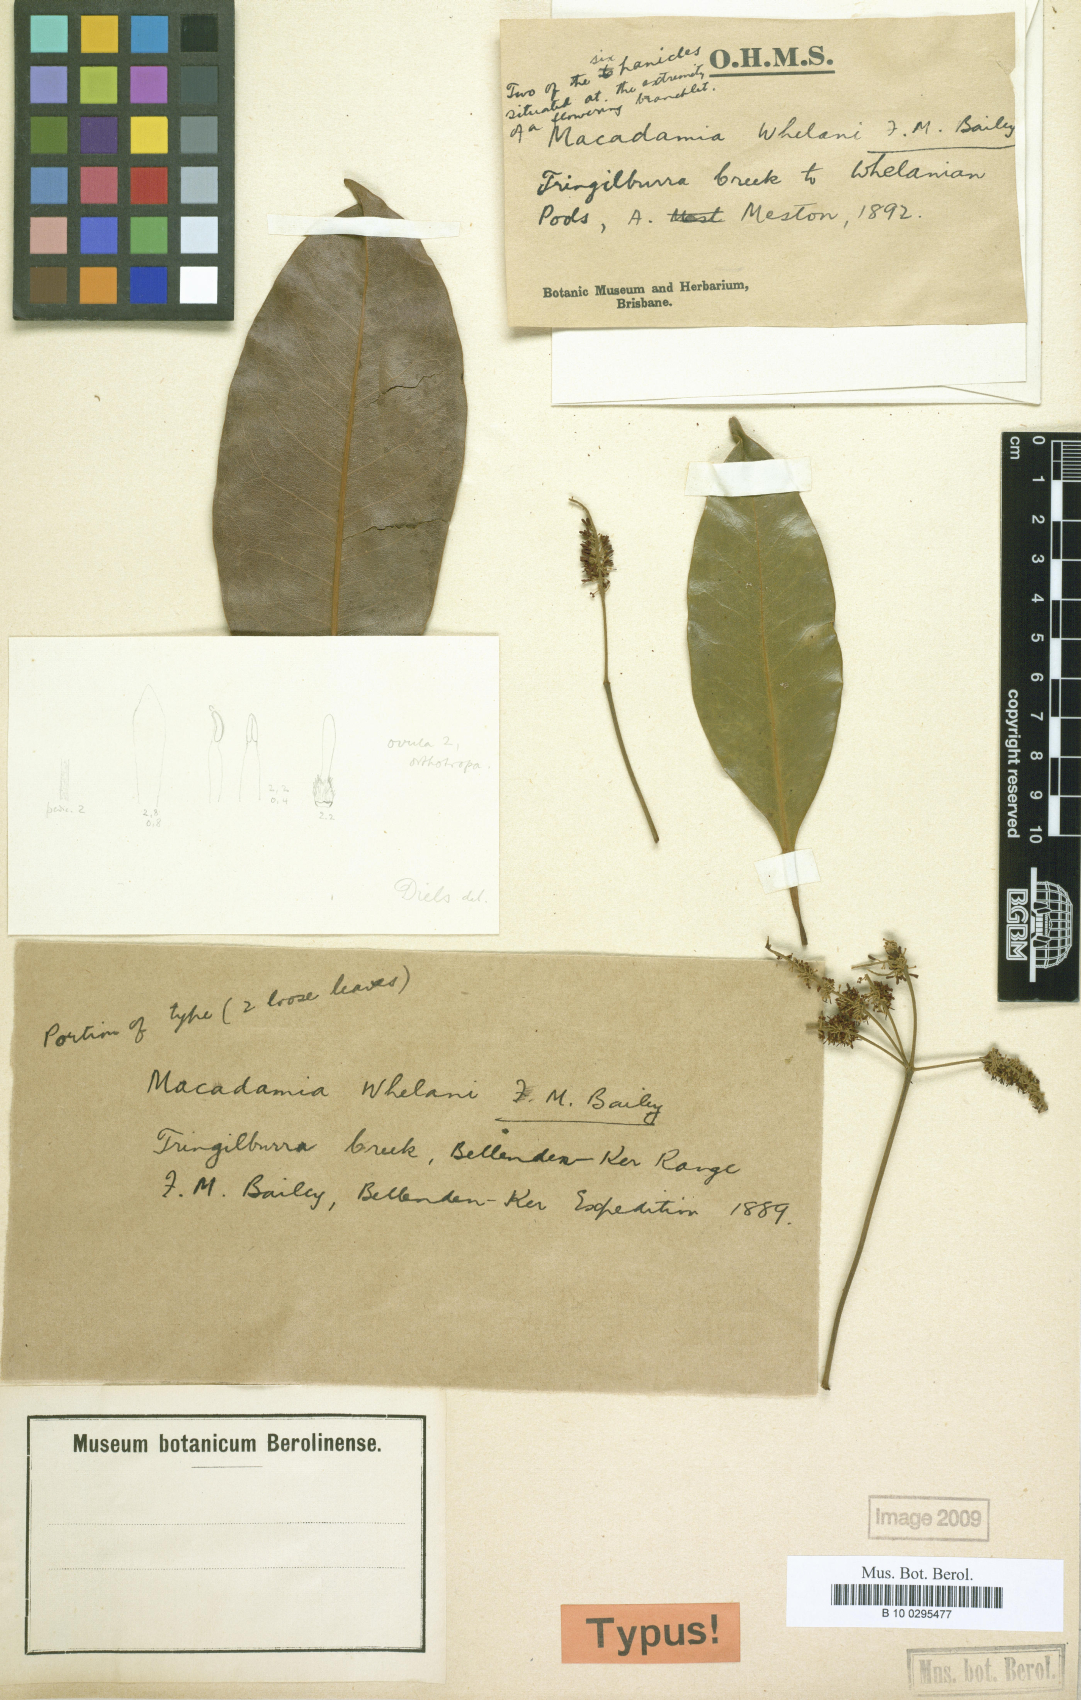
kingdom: Plantae
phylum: Tracheophyta
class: Magnoliopsida
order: Proteales
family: Proteaceae
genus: Lasjia
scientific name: Lasjia whelanii
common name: Whelan's nut-oak
